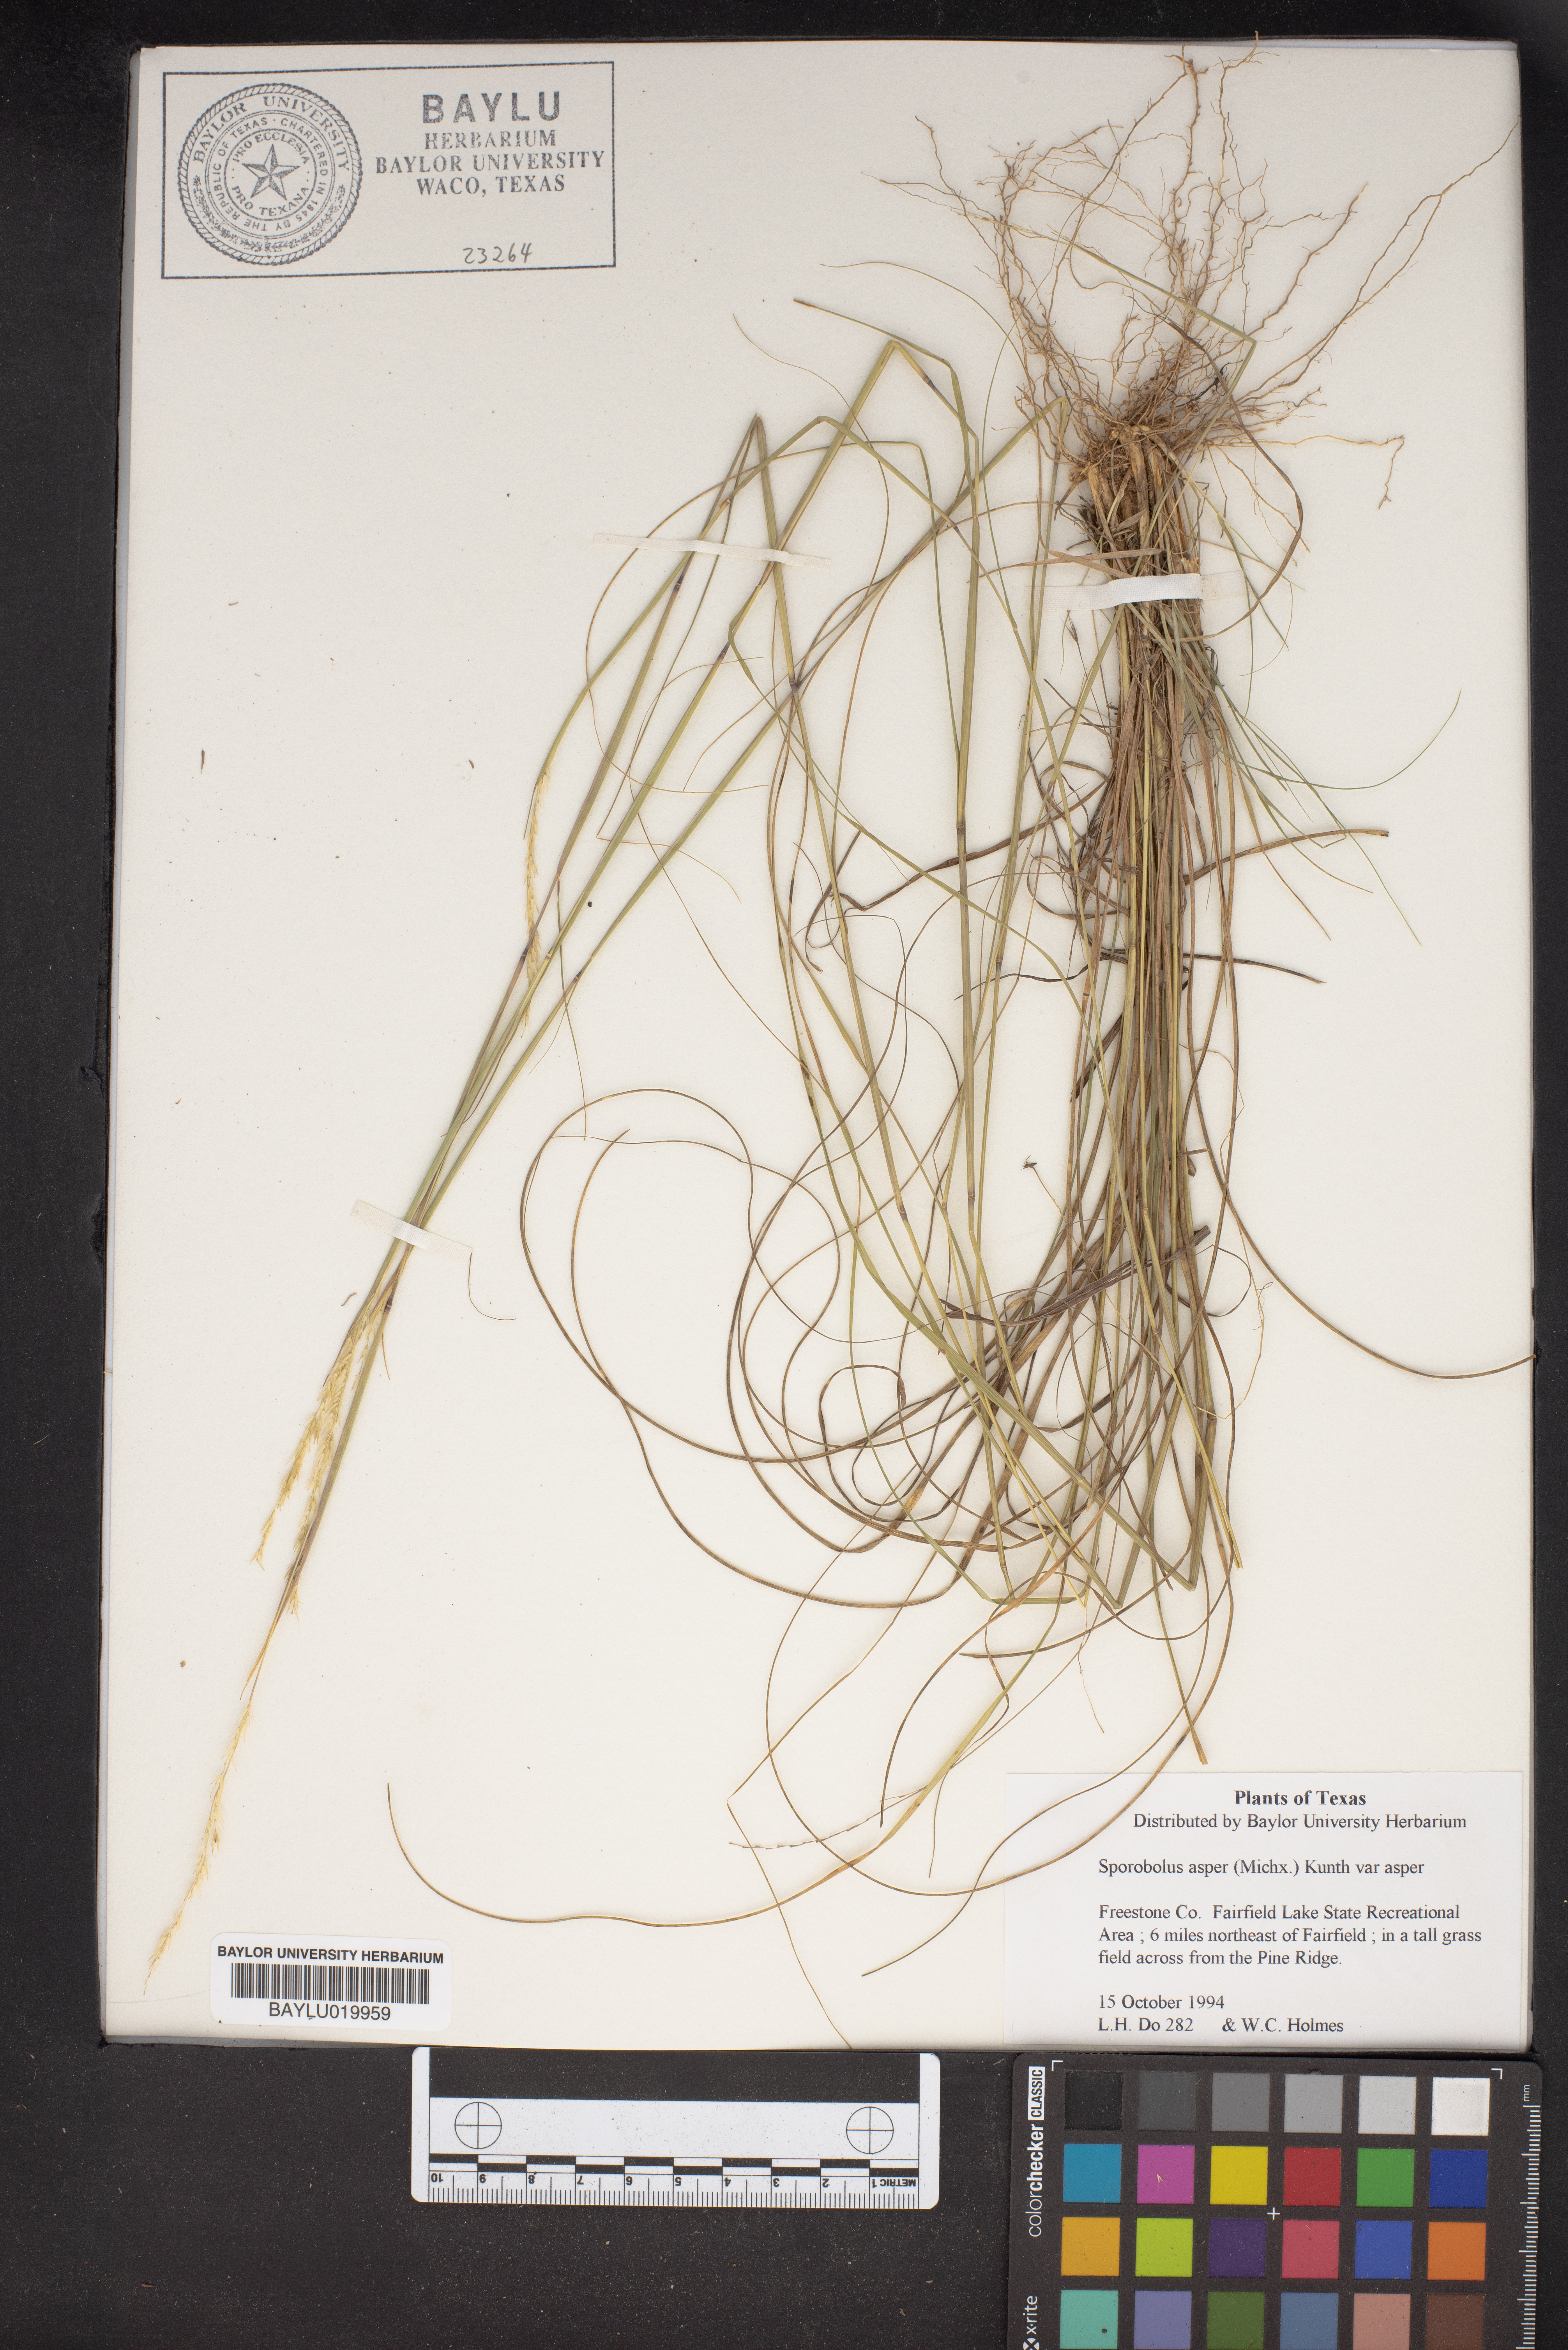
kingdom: Plantae
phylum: Tracheophyta
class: Liliopsida
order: Poales
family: Poaceae
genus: Sporobolus
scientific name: Sporobolus compositus
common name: Rough dropseed
